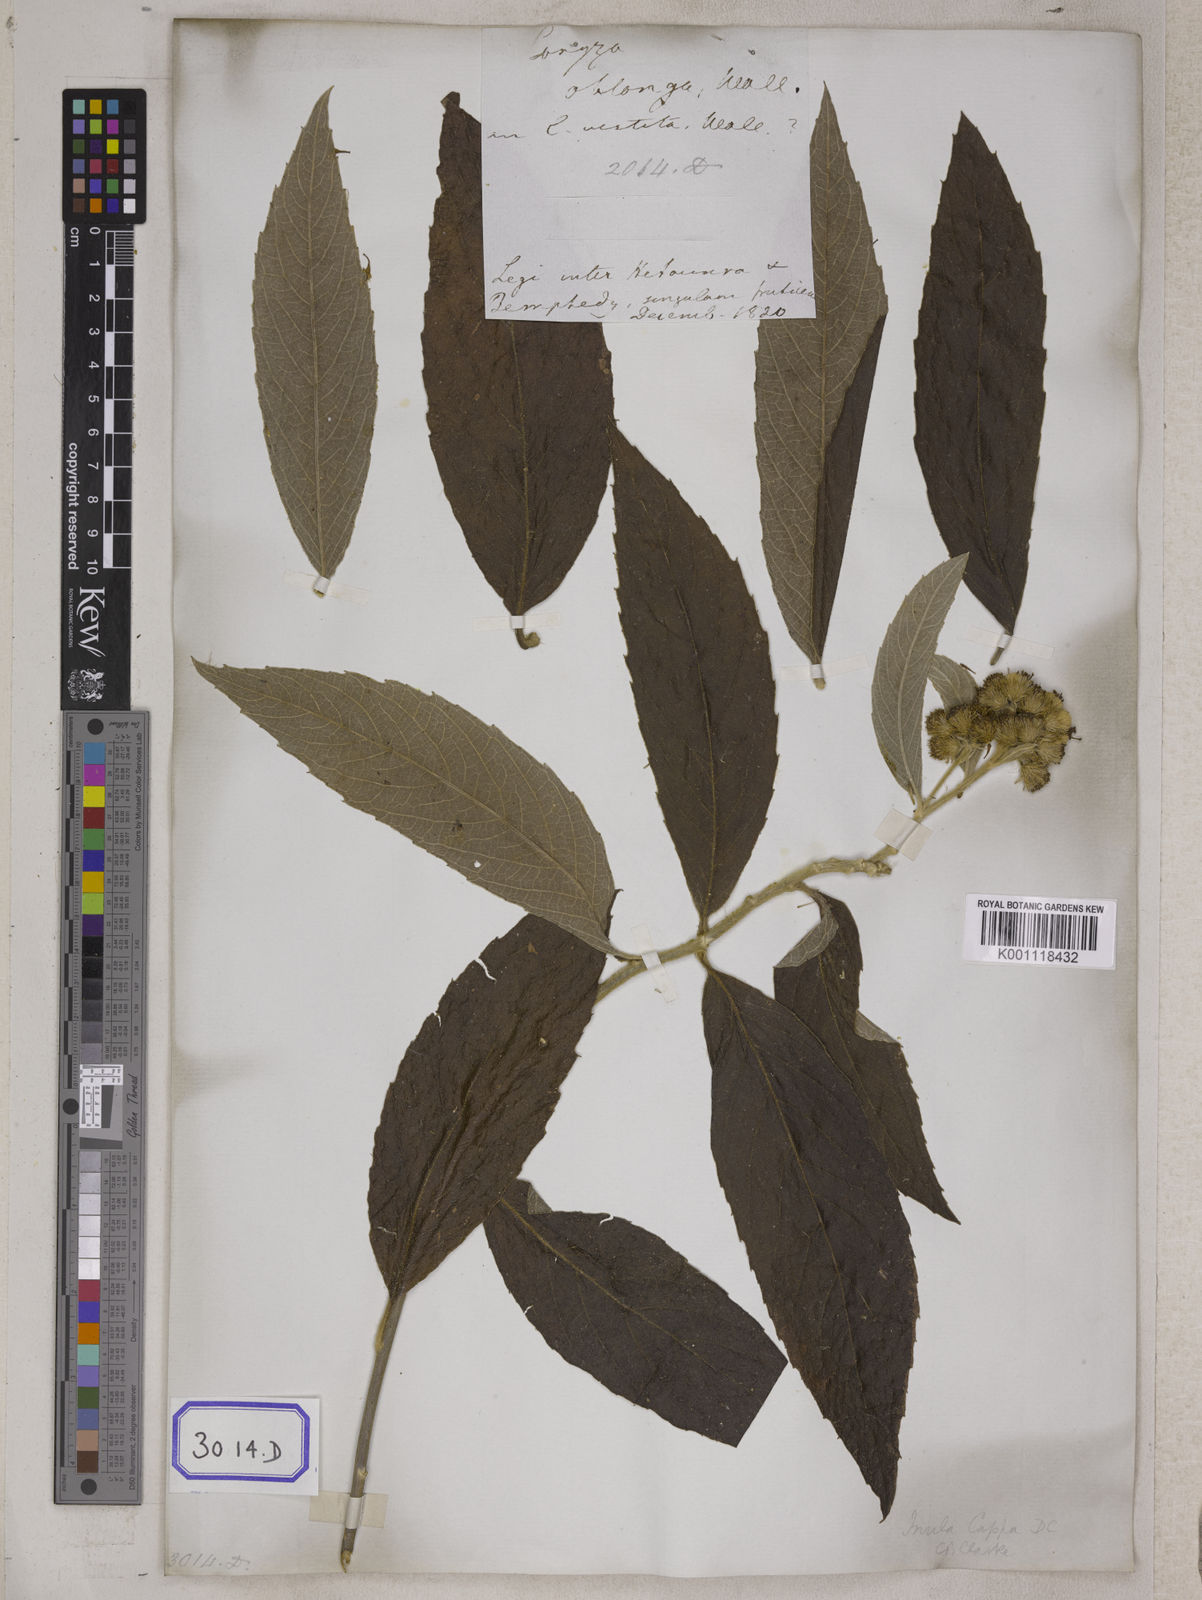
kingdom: Plantae
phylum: Tracheophyta
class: Magnoliopsida
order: Asterales
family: Asteraceae
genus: Duhaldea
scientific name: Duhaldea cappa
